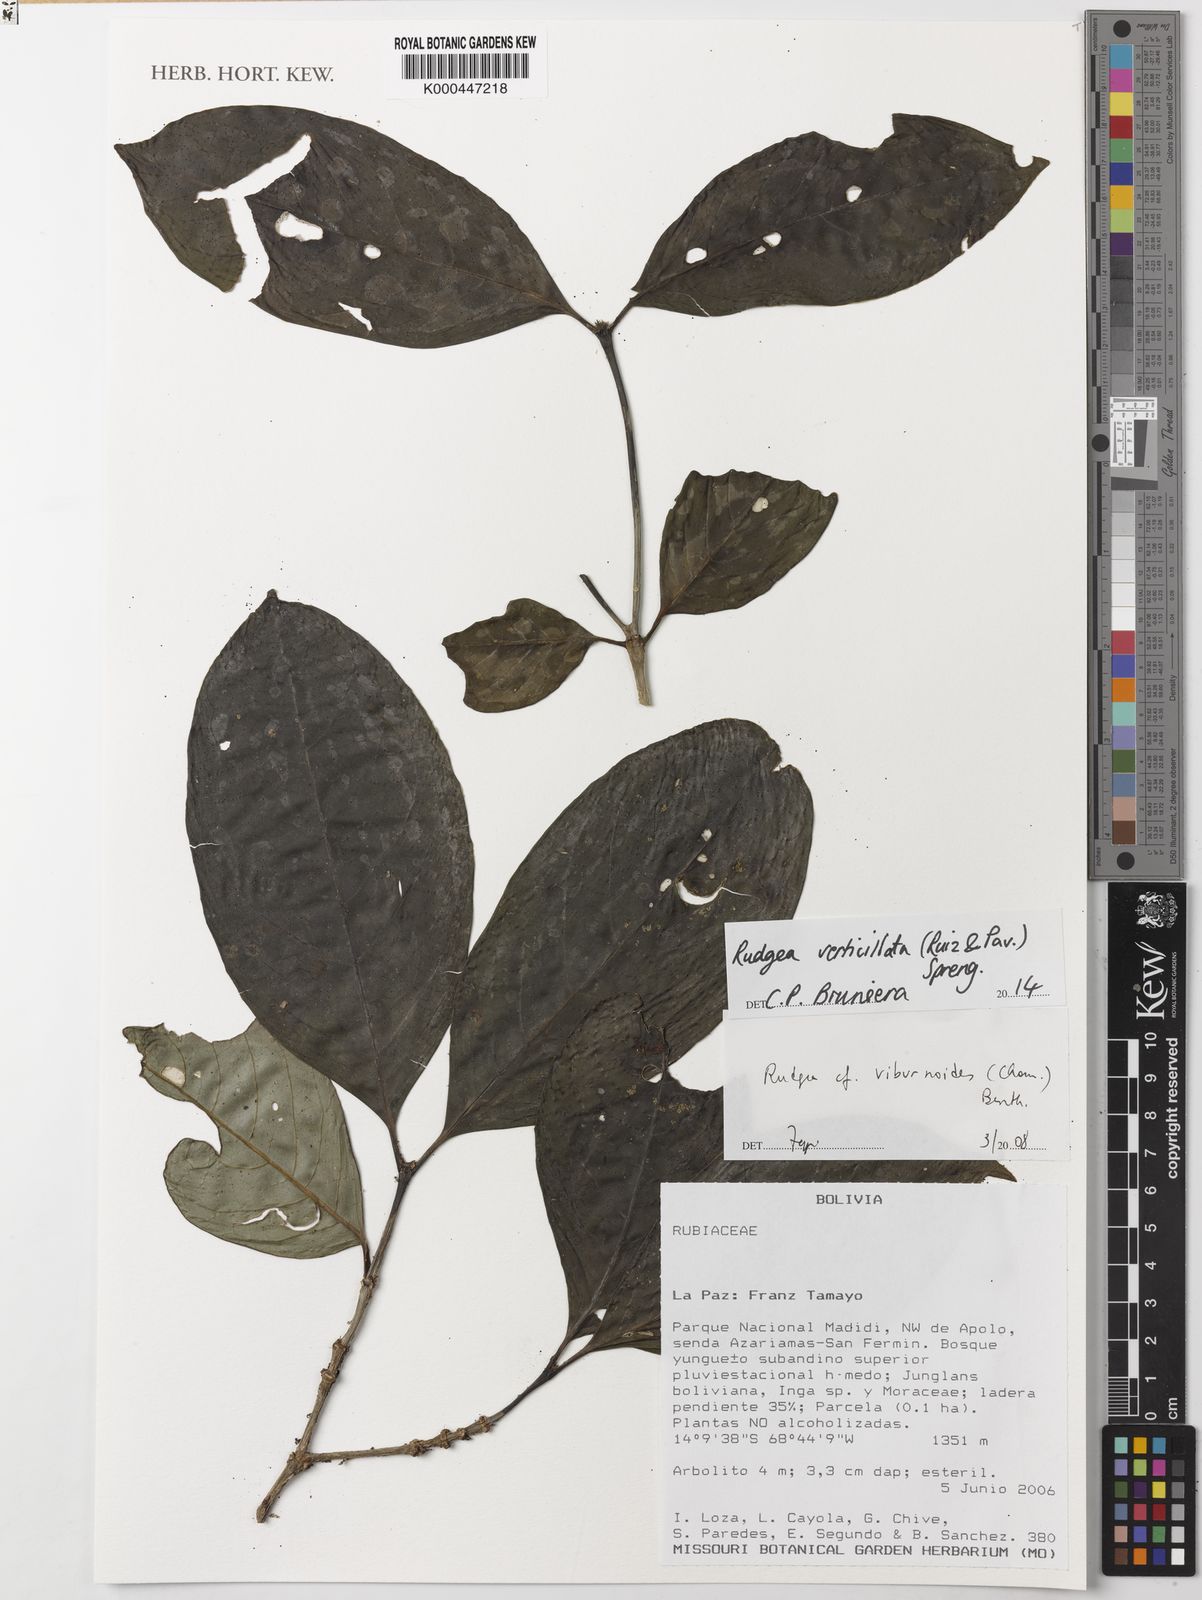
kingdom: Plantae
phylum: Tracheophyta
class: Magnoliopsida
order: Gentianales
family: Rubiaceae
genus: Rudgea
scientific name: Rudgea verticillata
